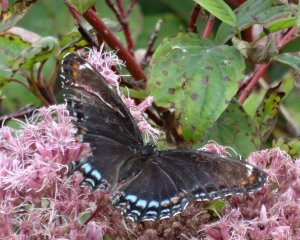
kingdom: Animalia
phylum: Arthropoda
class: Insecta
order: Lepidoptera
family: Nymphalidae
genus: Limenitis
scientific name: Limenitis astyanax
